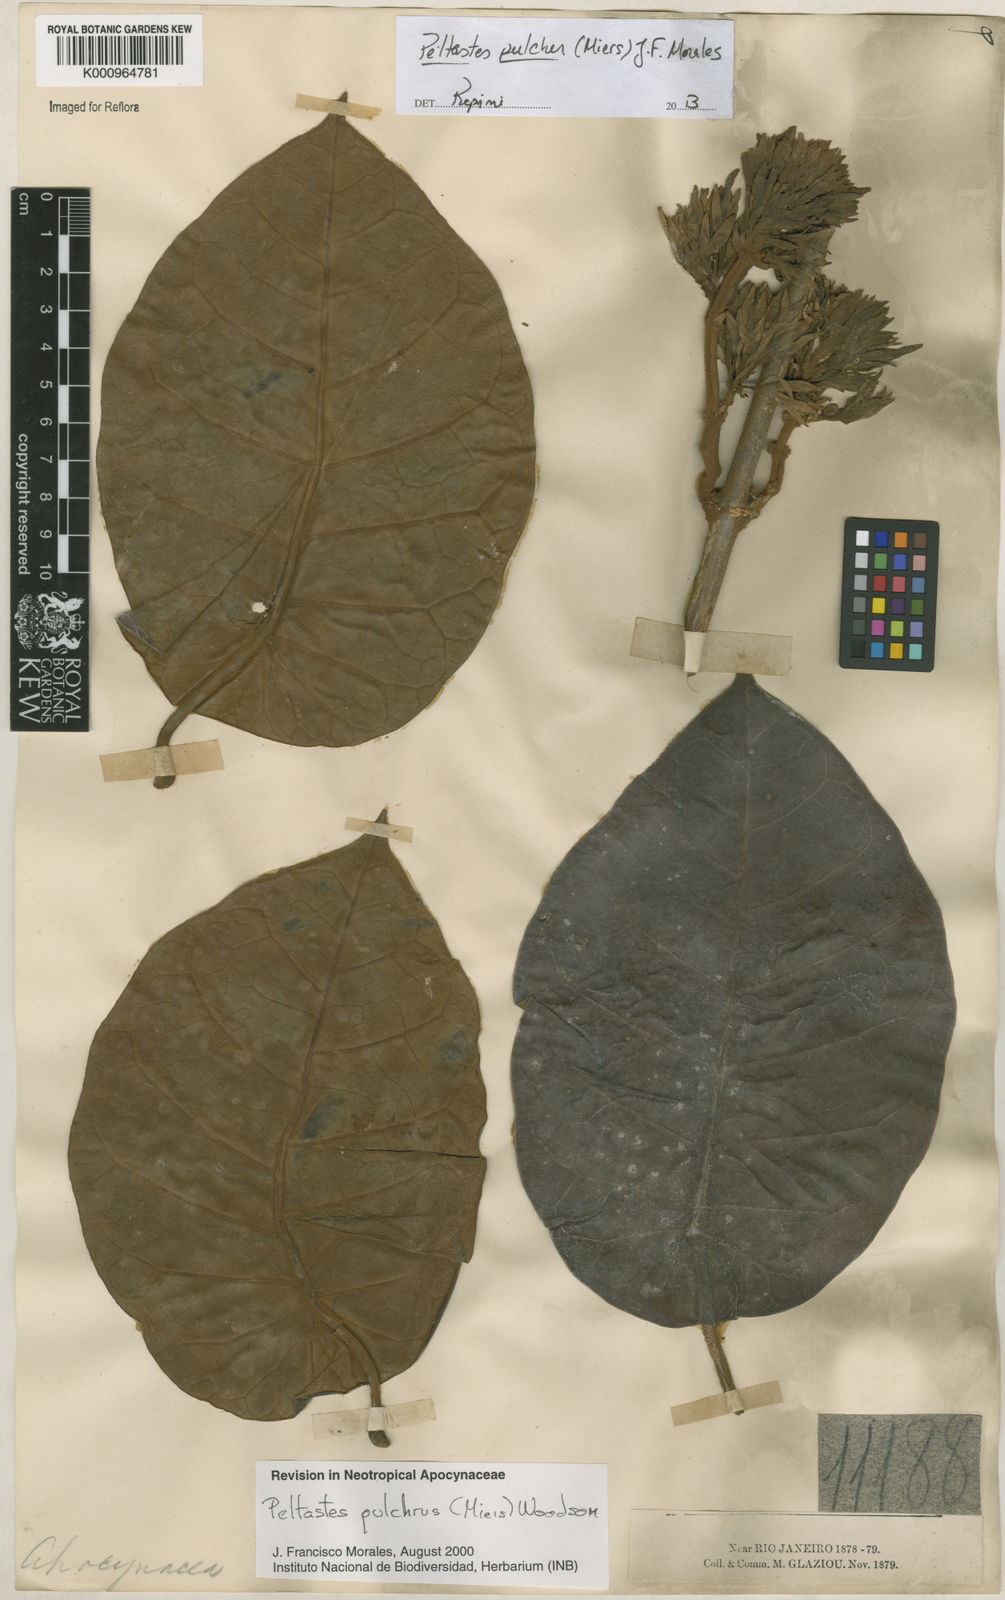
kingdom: Plantae
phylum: Tracheophyta
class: Magnoliopsida
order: Gentianales
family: Apocynaceae
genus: Macropharynx
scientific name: Macropharynx pulchra
